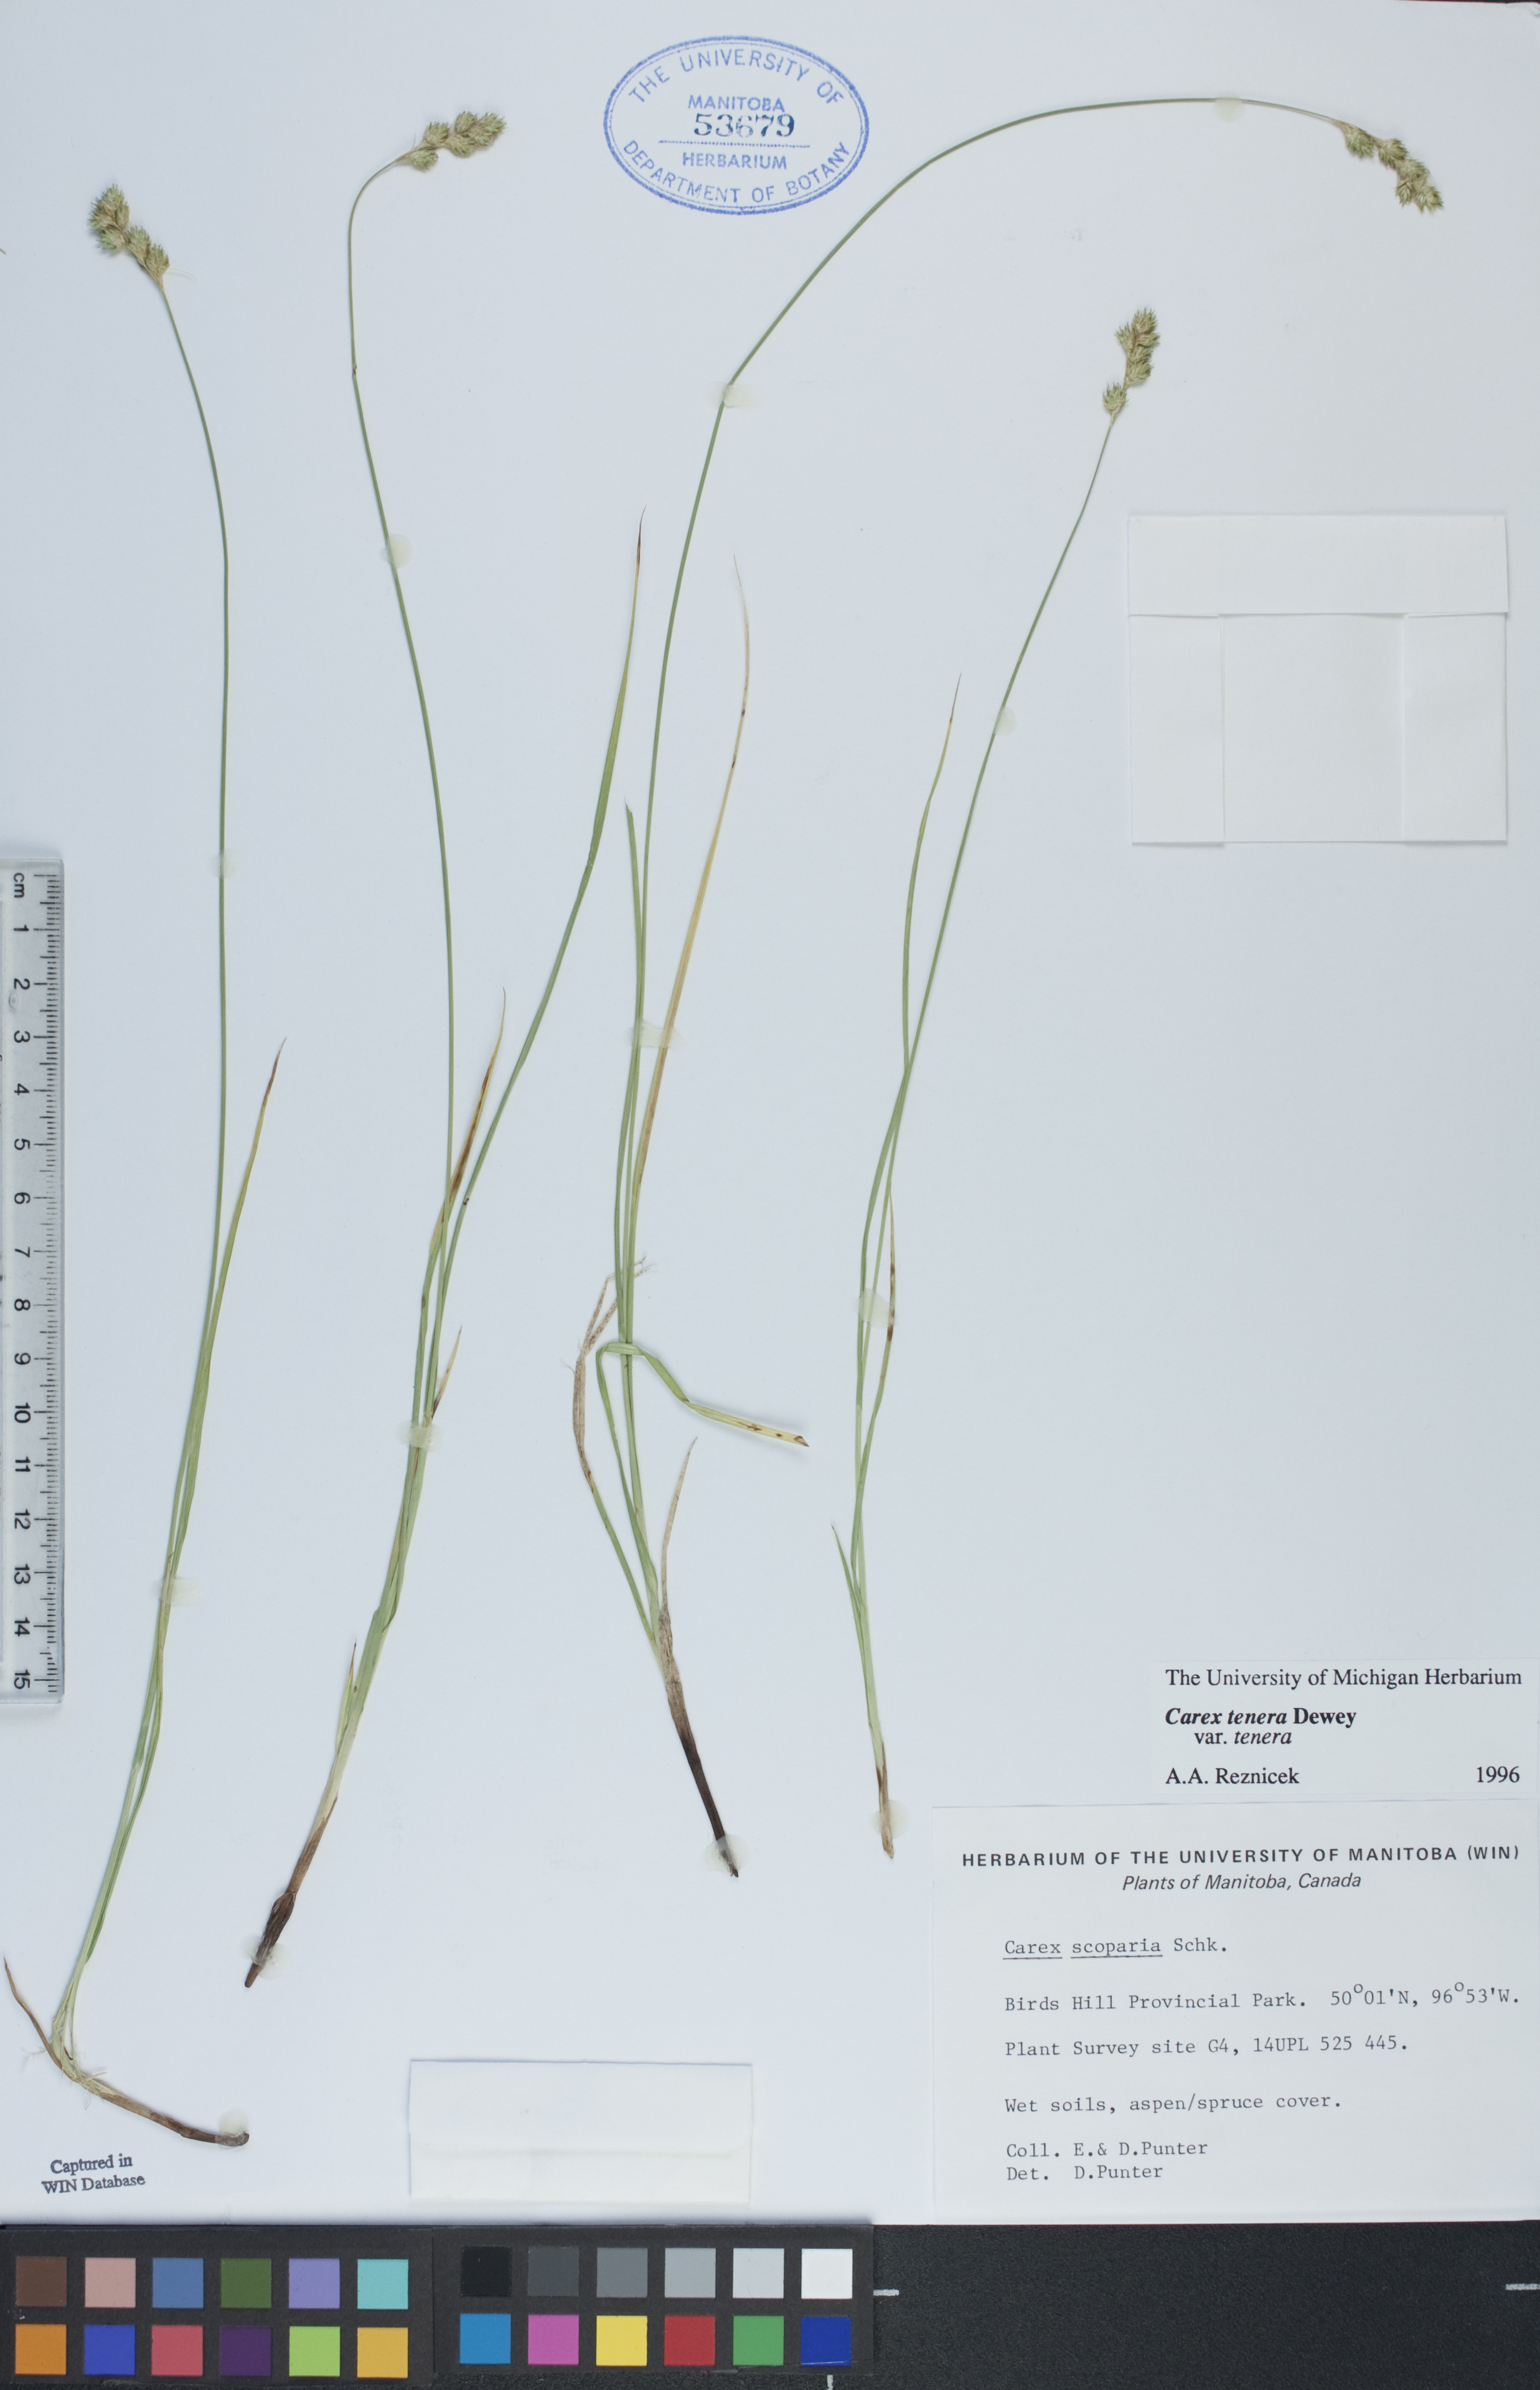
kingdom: Plantae
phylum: Tracheophyta
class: Liliopsida
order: Poales
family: Cyperaceae
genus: Carex
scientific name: Carex tenera
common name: Broad-fruited sedge
